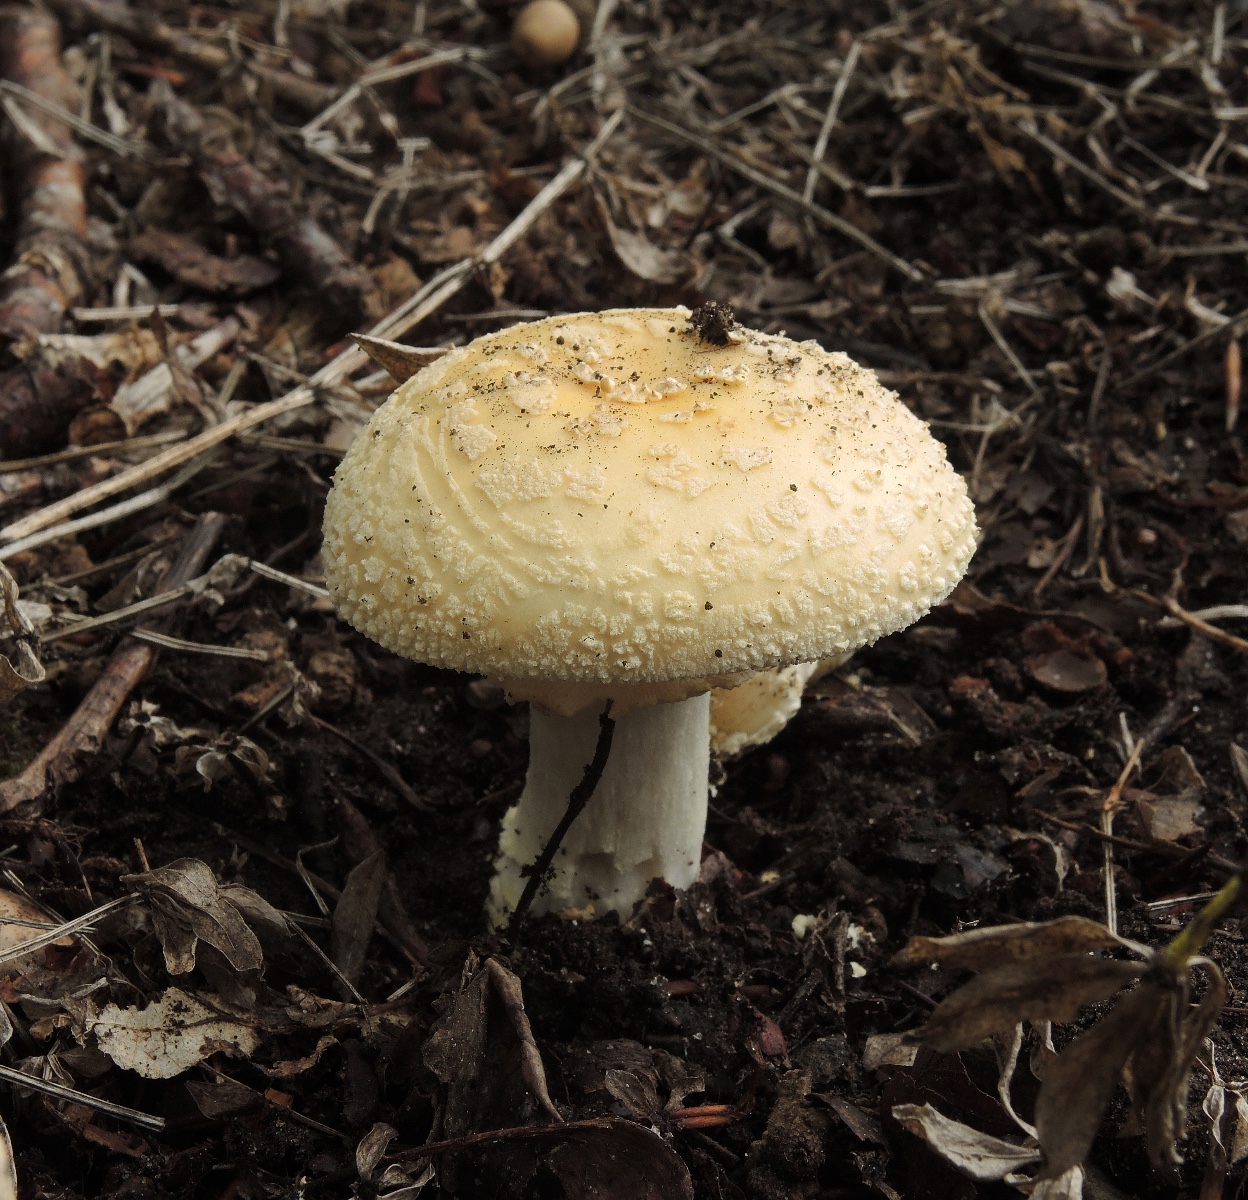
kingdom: Fungi
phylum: Basidiomycota
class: Agaricomycetes
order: Agaricales
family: Amanitaceae
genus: Amanita
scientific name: Amanita franchetii
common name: gulrandet fluesvamp
